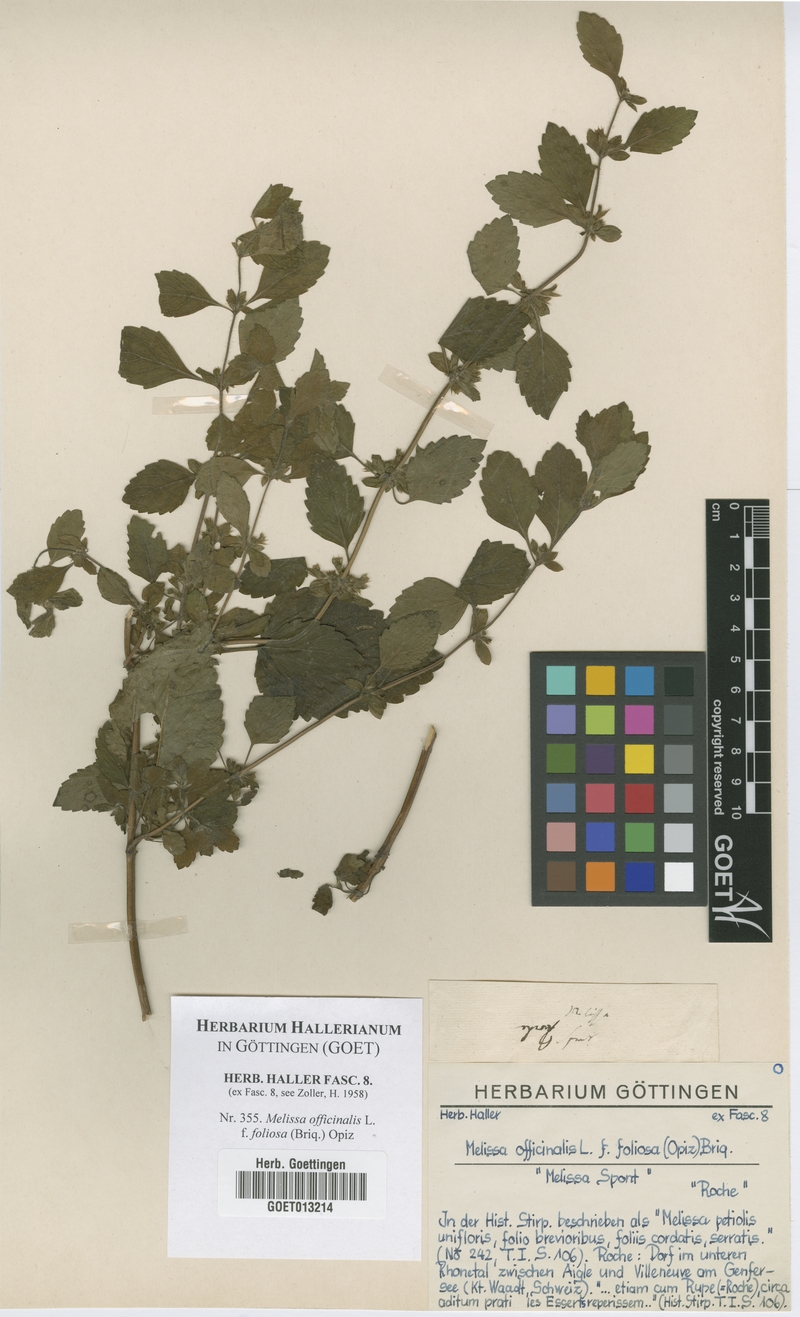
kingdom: Plantae
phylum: Tracheophyta
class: Magnoliopsida
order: Lamiales
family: Lamiaceae
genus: Melissa
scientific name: Melissa officinalis
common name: Balm
